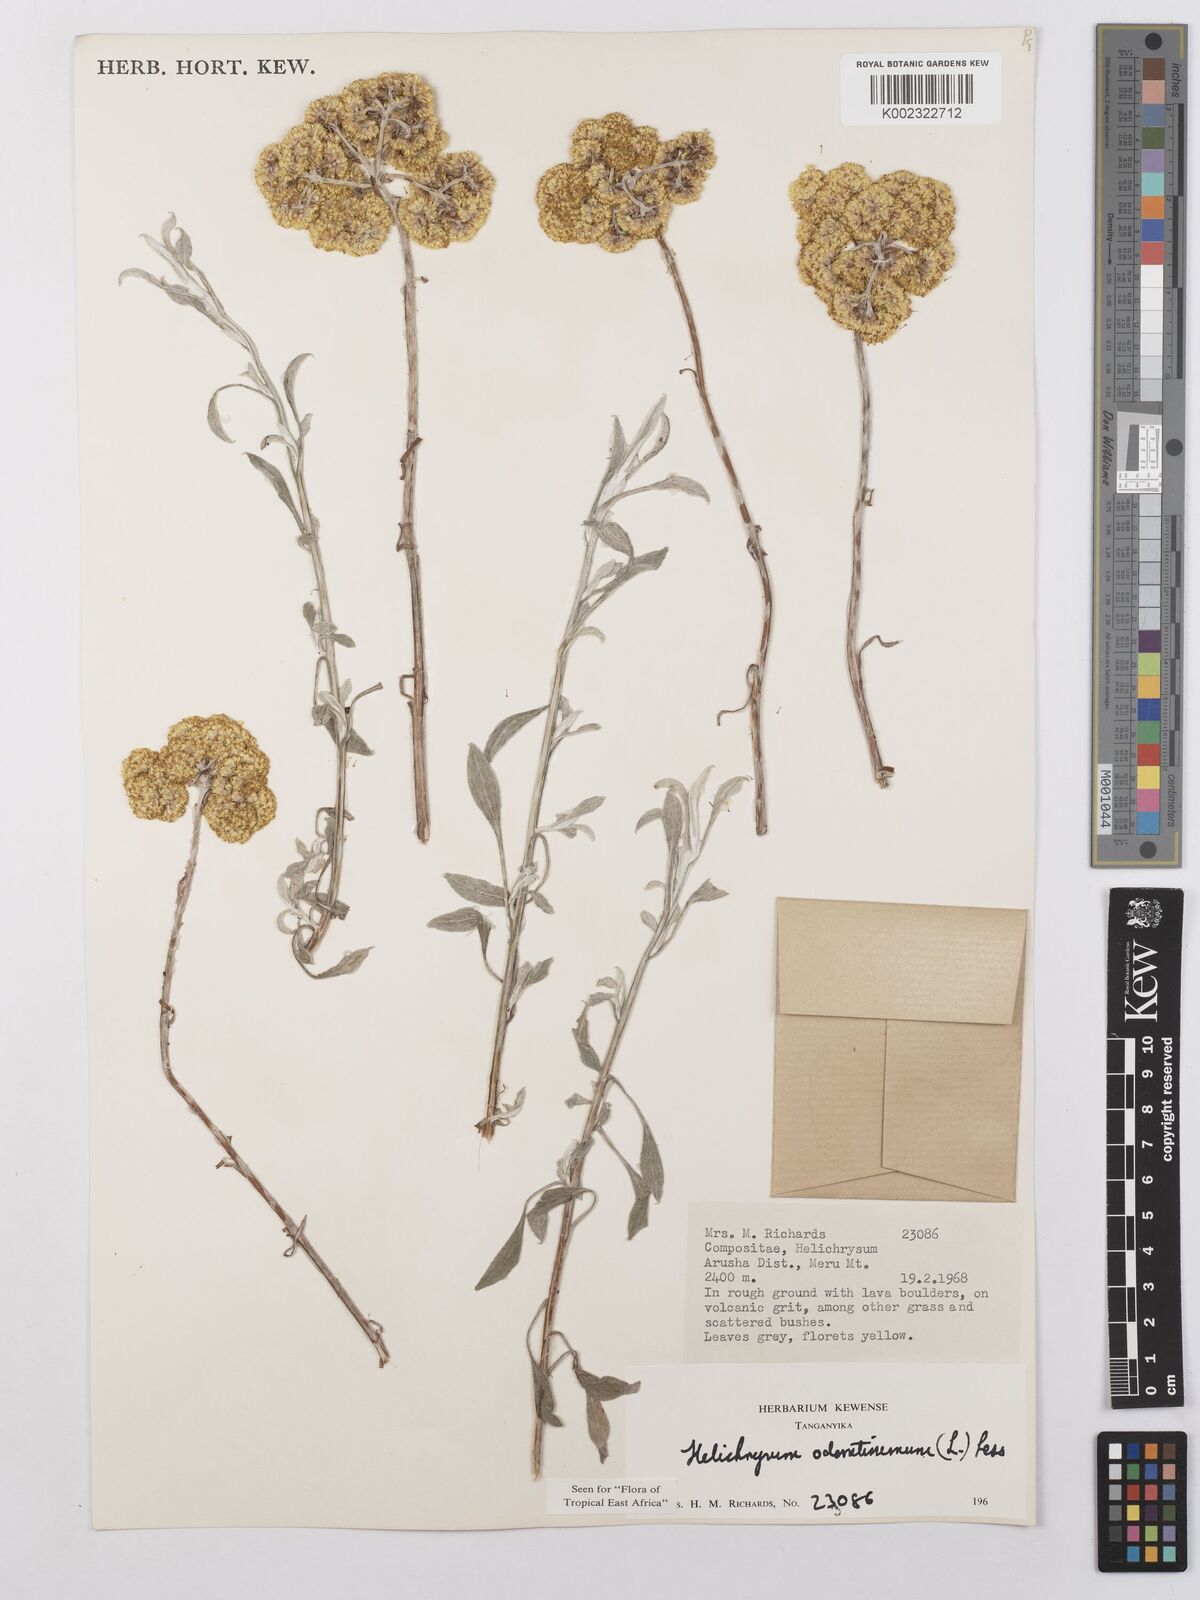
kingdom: Plantae
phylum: Tracheophyta
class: Magnoliopsida
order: Asterales
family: Asteraceae
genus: Helichrysum
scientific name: Helichrysum odoratissimum
